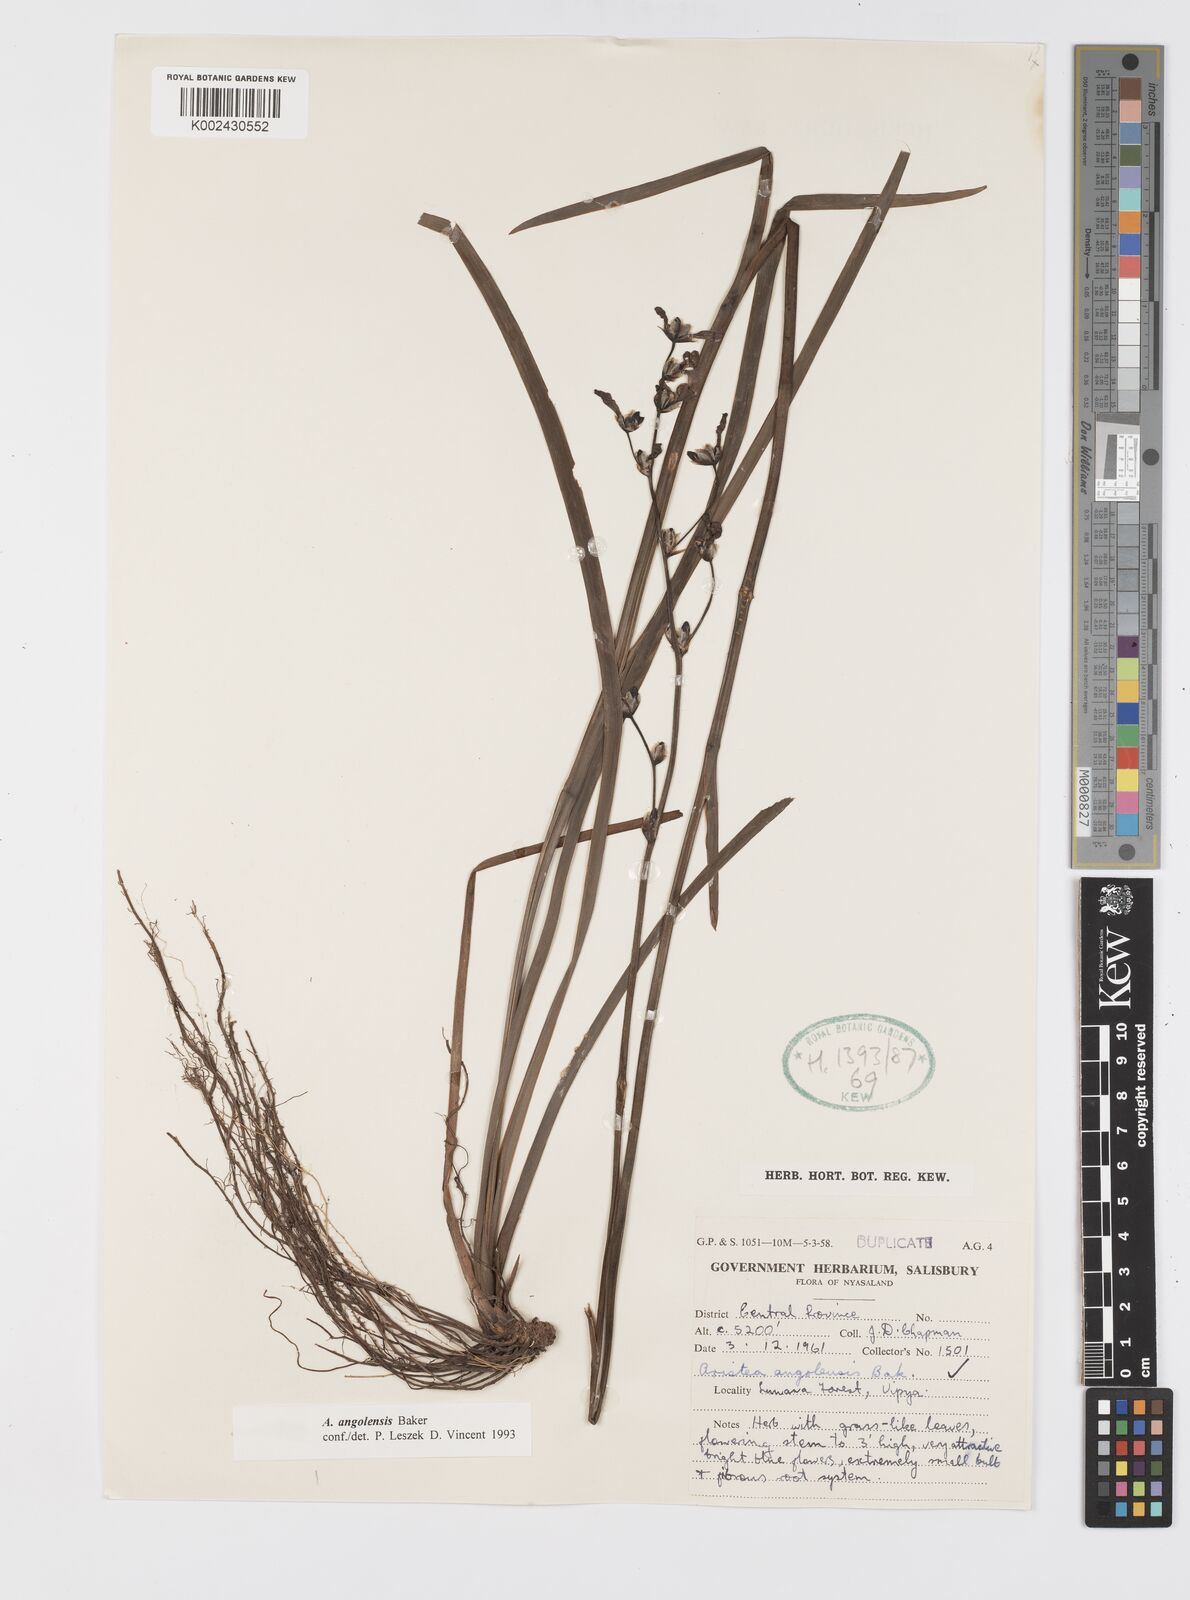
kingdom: Plantae
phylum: Tracheophyta
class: Liliopsida
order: Asparagales
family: Iridaceae
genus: Aristea
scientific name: Aristea angolensis
